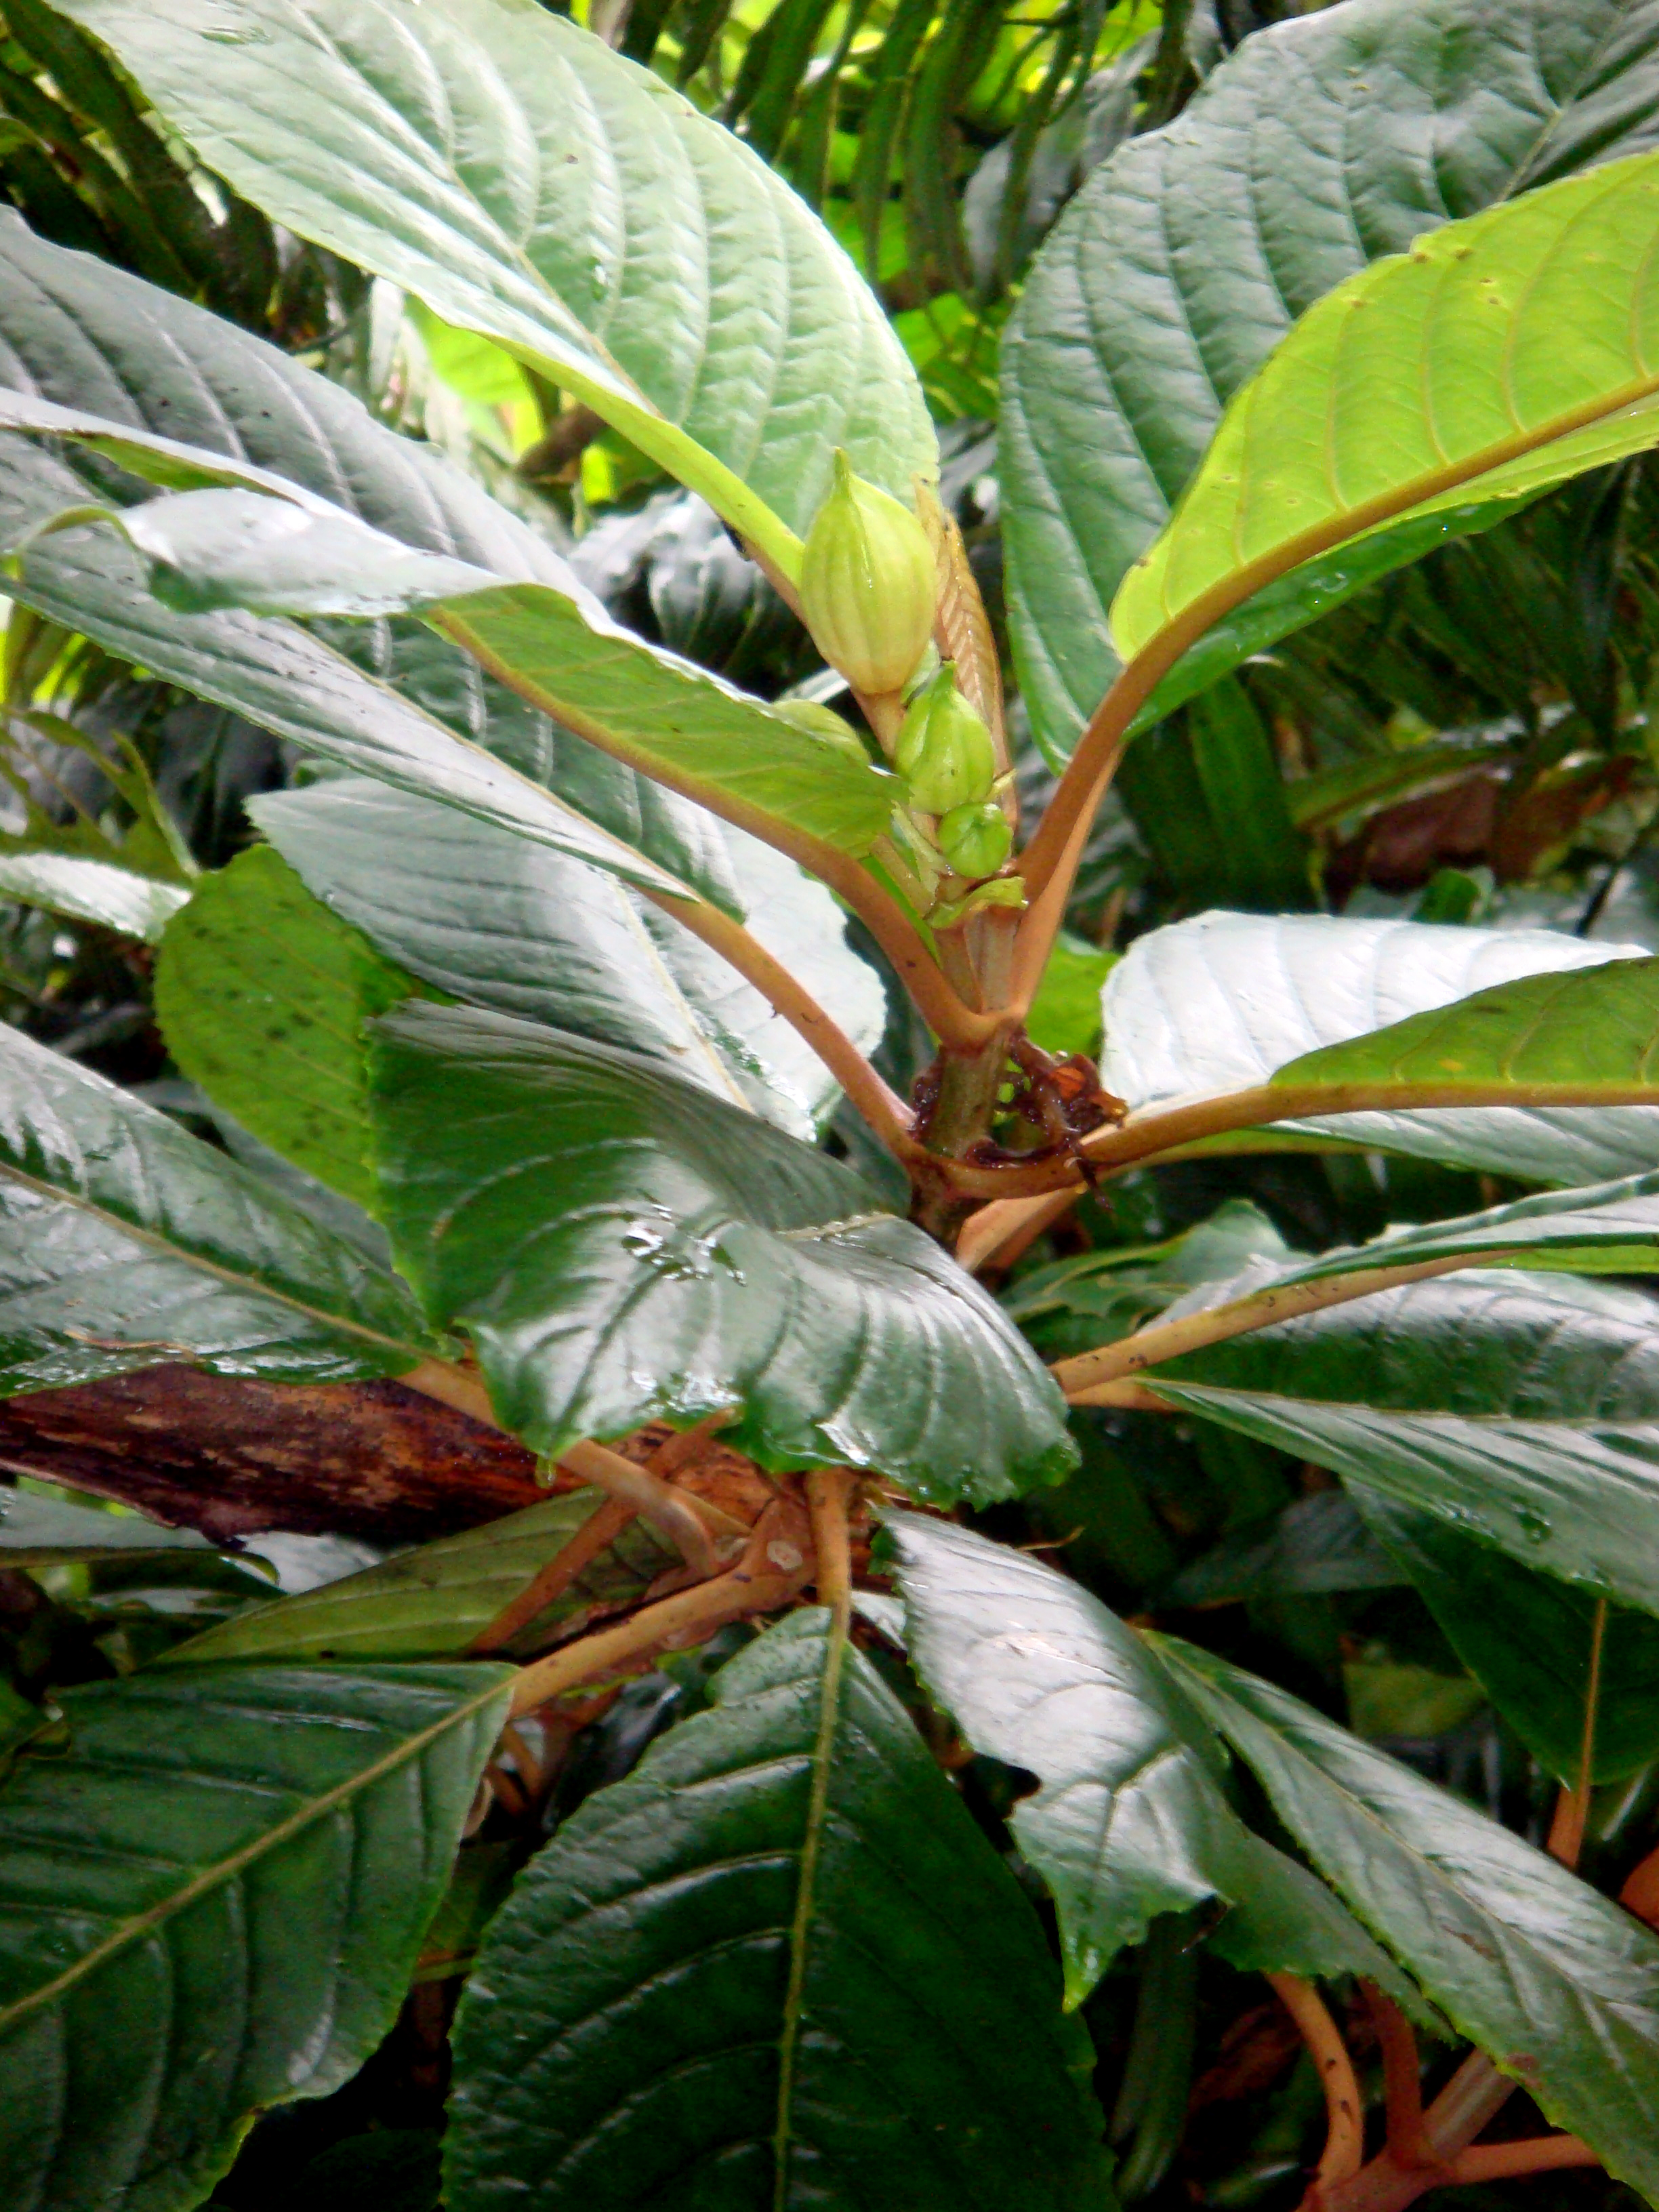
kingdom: Plantae
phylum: Tracheophyta
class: Magnoliopsida
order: Lamiales
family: Gesneriaceae
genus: Cyrtandra
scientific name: Cyrtandra lillianae
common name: Te manga cyrtandra
